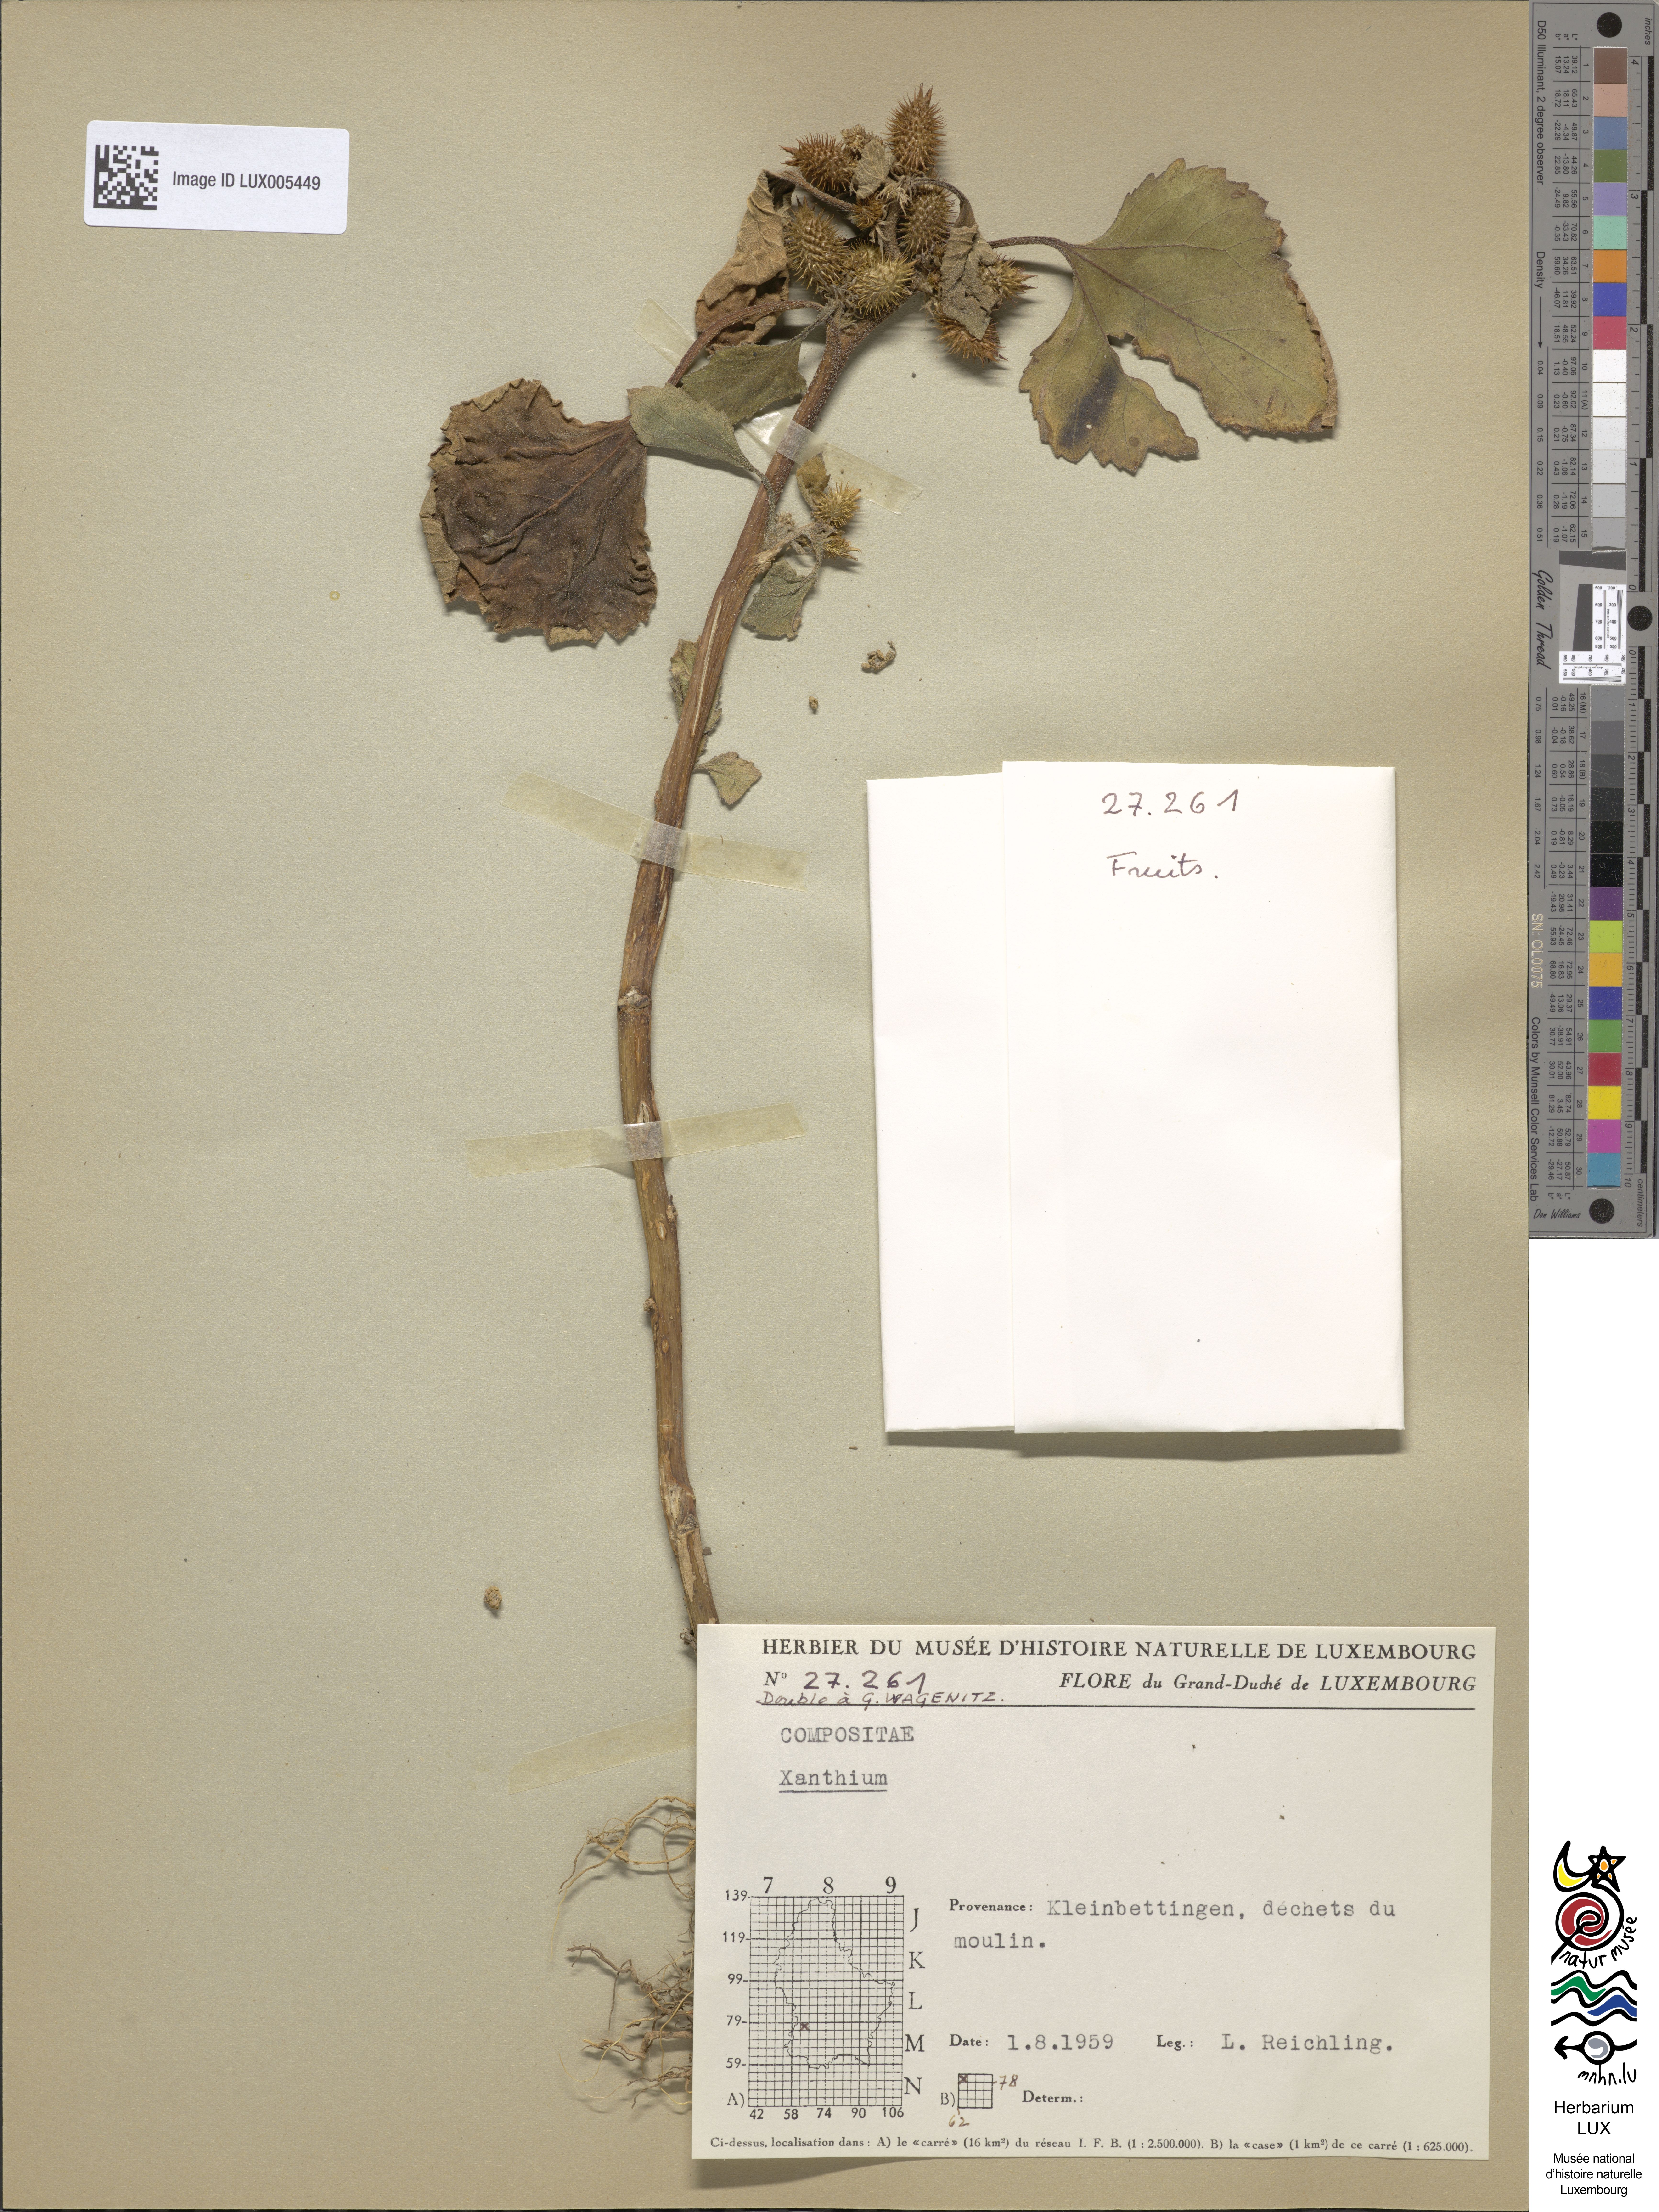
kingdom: Plantae
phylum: Tracheophyta
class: Magnoliopsida
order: Asterales
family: Asteraceae
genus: Xanthium
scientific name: Xanthium orientale
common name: Californian burr
